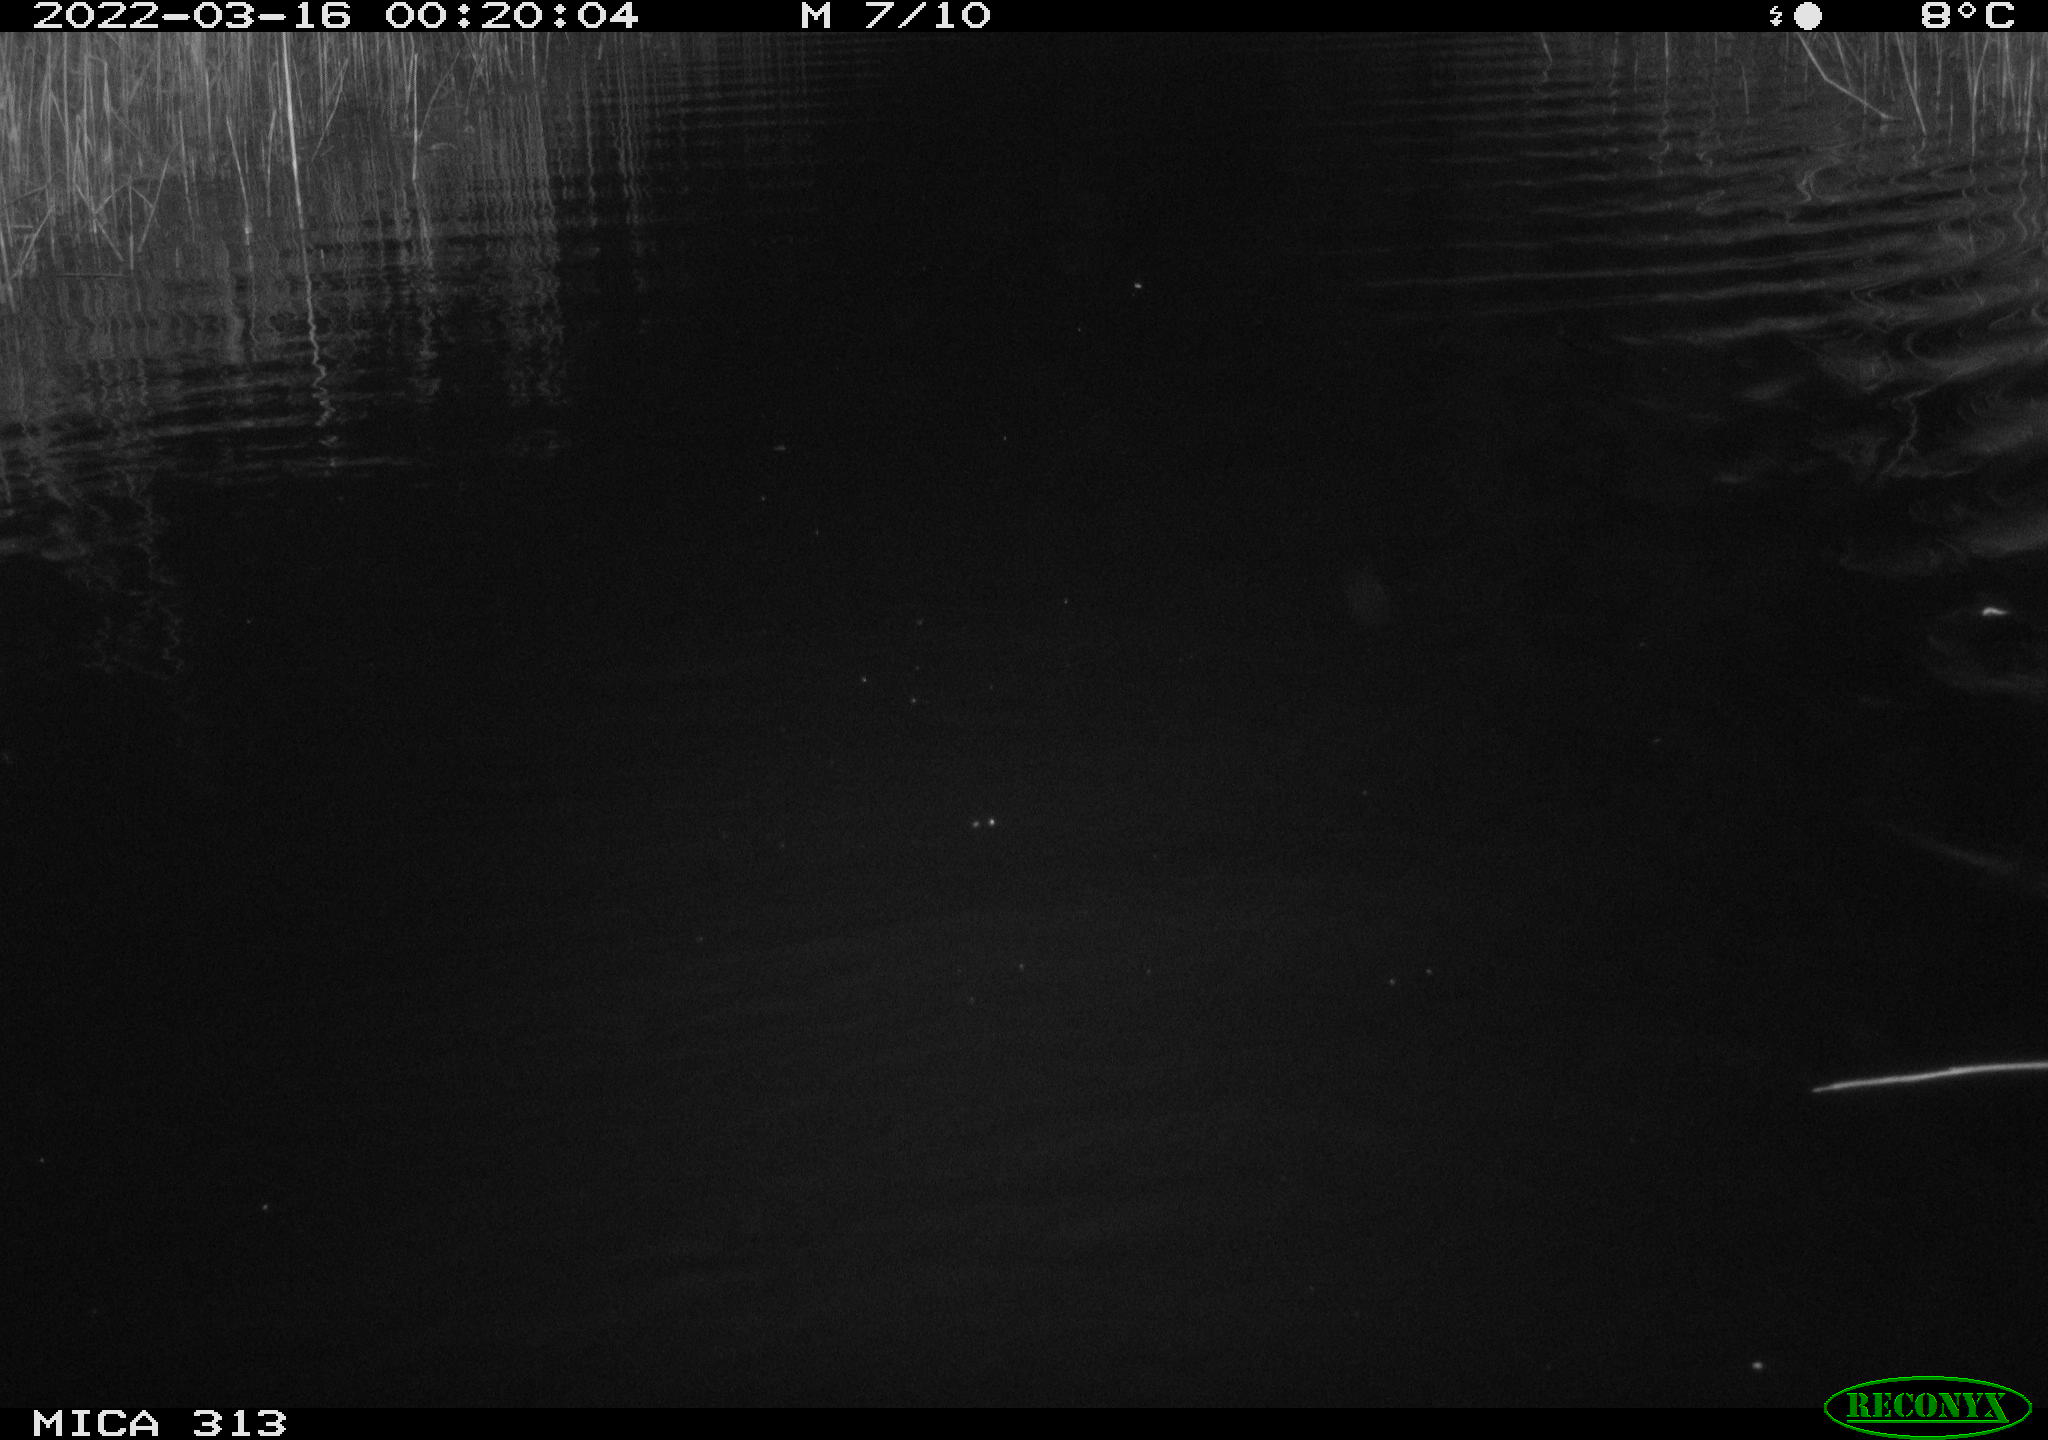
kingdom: Animalia
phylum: Chordata
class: Mammalia
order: Rodentia
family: Cricetidae
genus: Ondatra
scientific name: Ondatra zibethicus
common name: Muskrat
